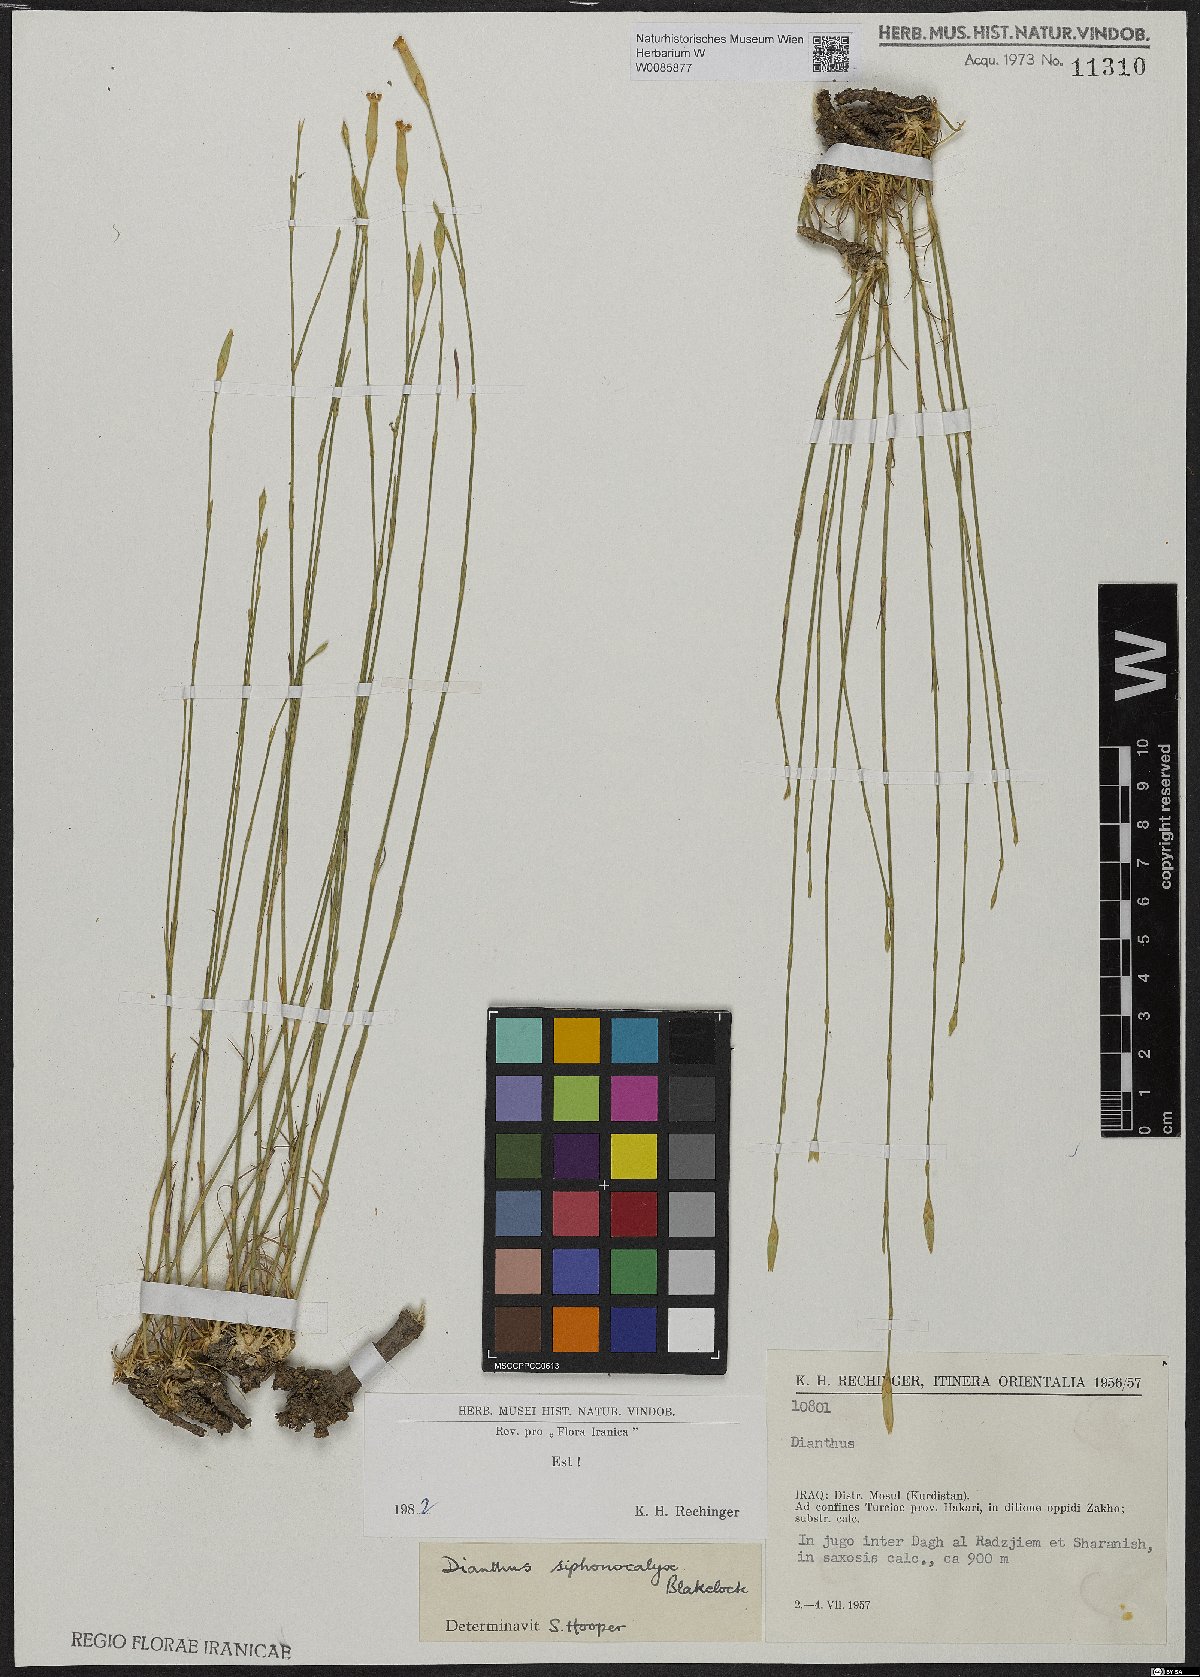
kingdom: Plantae
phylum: Tracheophyta
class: Magnoliopsida
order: Caryophyllales
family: Caryophyllaceae
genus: Dianthus
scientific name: Dianthus siphonocalyx
